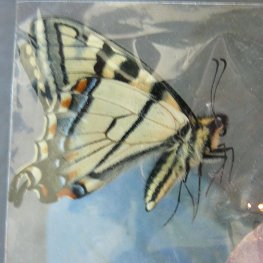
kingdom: Animalia
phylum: Arthropoda
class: Insecta
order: Lepidoptera
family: Papilionidae
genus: Pterourus
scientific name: Pterourus canadensis
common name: Canadian Tiger Swallowtail
